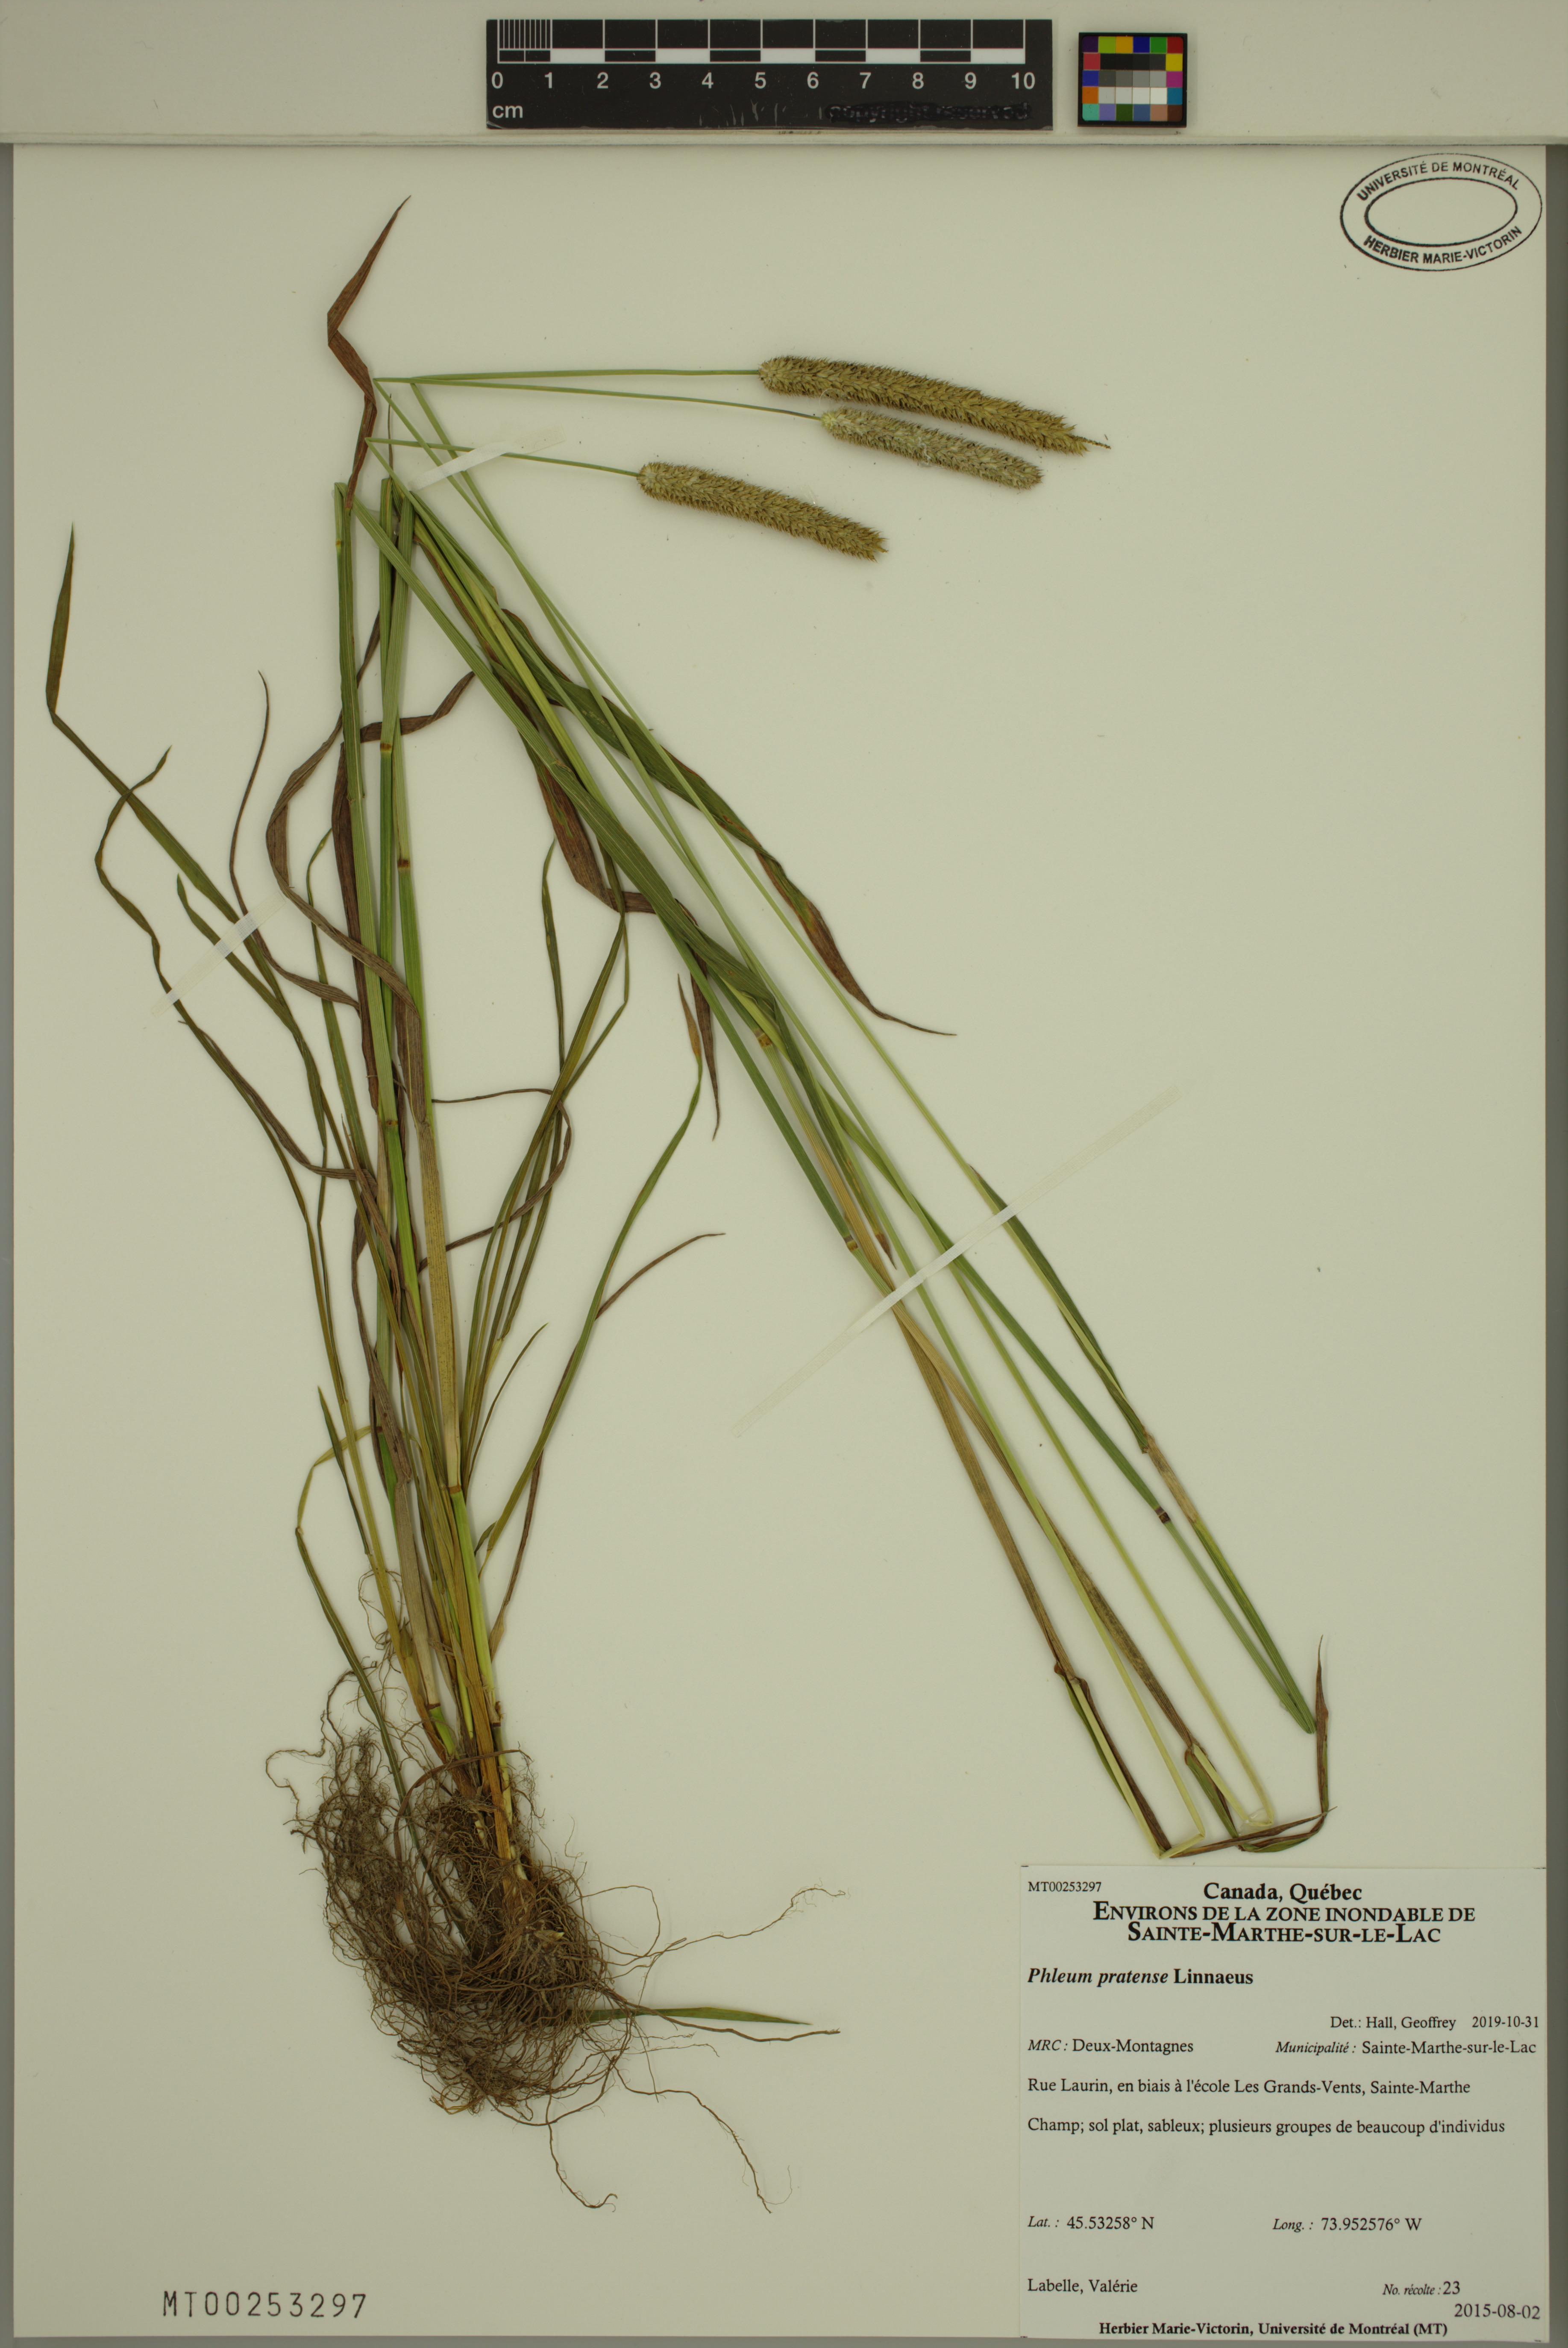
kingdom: Plantae
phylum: Tracheophyta
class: Liliopsida
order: Poales
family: Poaceae
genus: Phleum
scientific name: Phleum pratense
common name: Timothy grass
